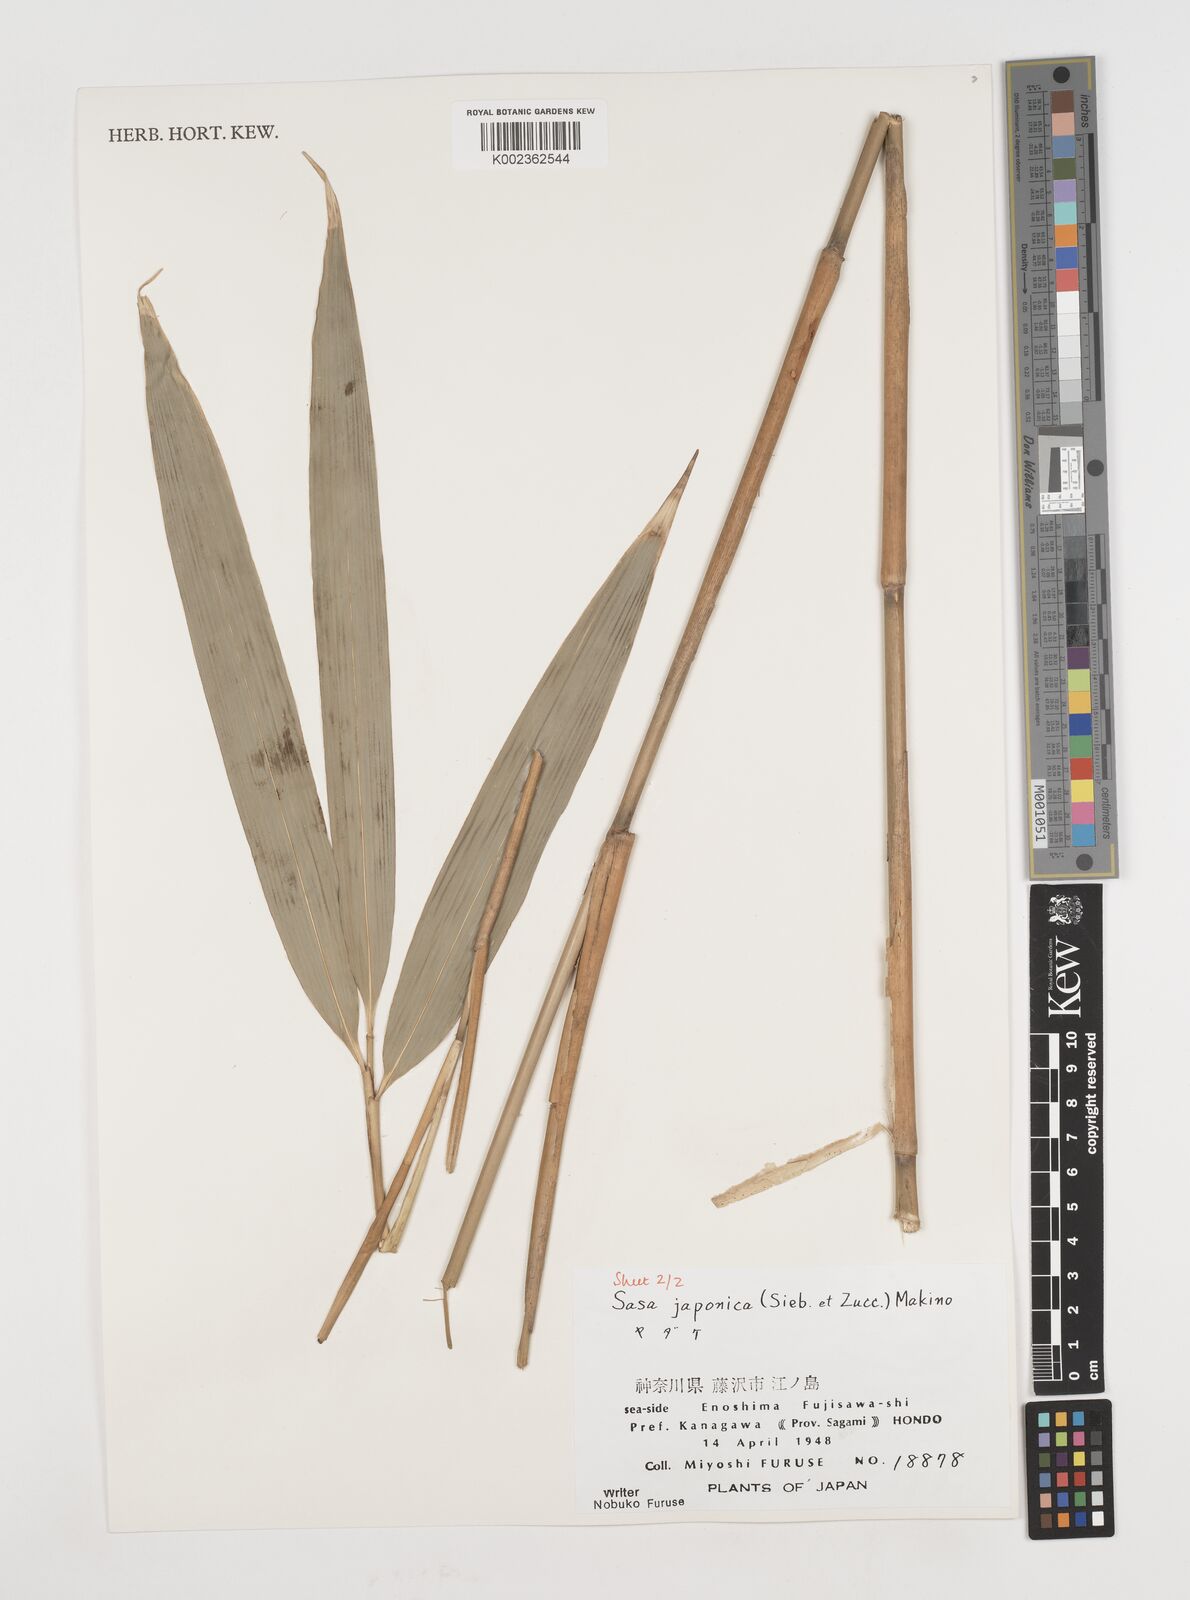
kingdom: Plantae
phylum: Tracheophyta
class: Liliopsida
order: Poales
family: Poaceae
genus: Pseudosasa
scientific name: Pseudosasa japonica
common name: Arrow bamboo
